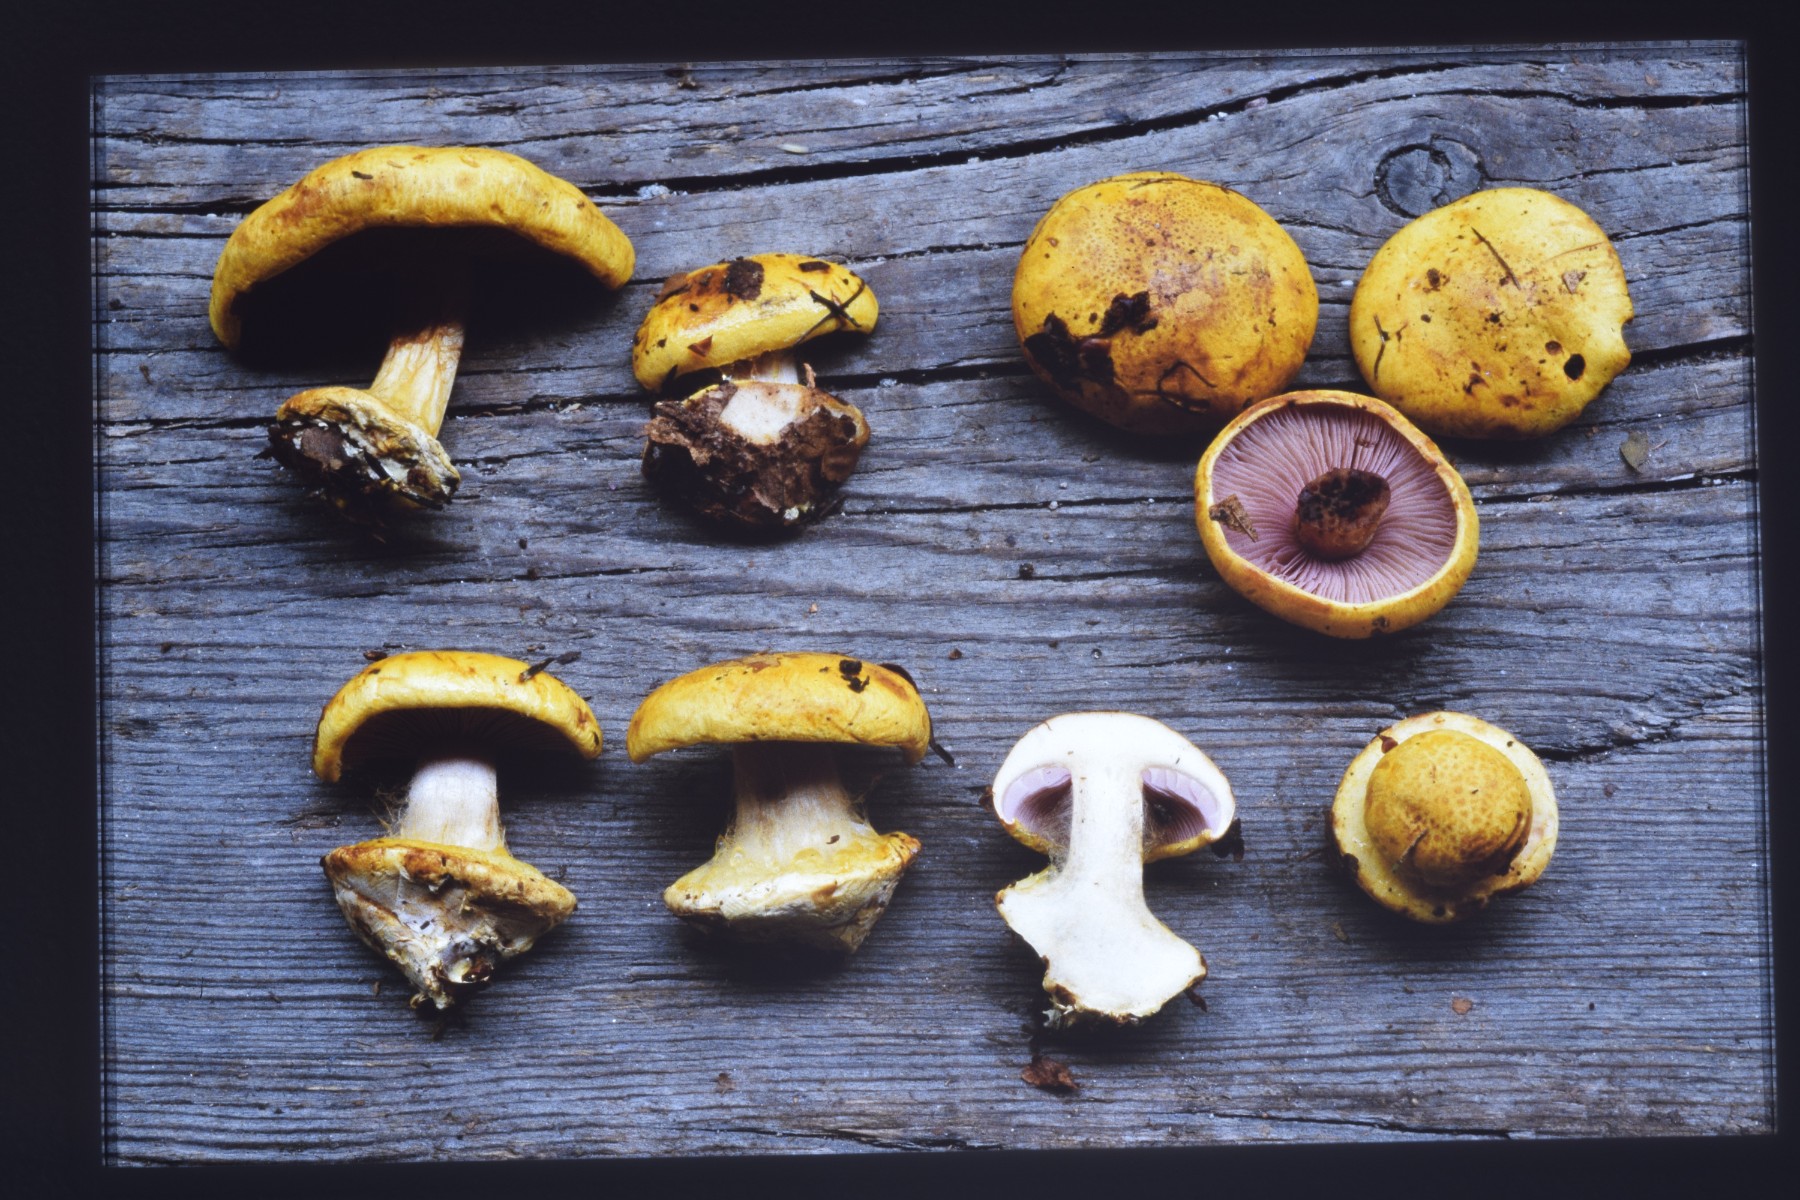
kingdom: Fungi
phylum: Basidiomycota
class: Agaricomycetes
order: Agaricales
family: Cortinariaceae
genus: Calonarius
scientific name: Calonarius callochrous
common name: lillabladet slørhat
